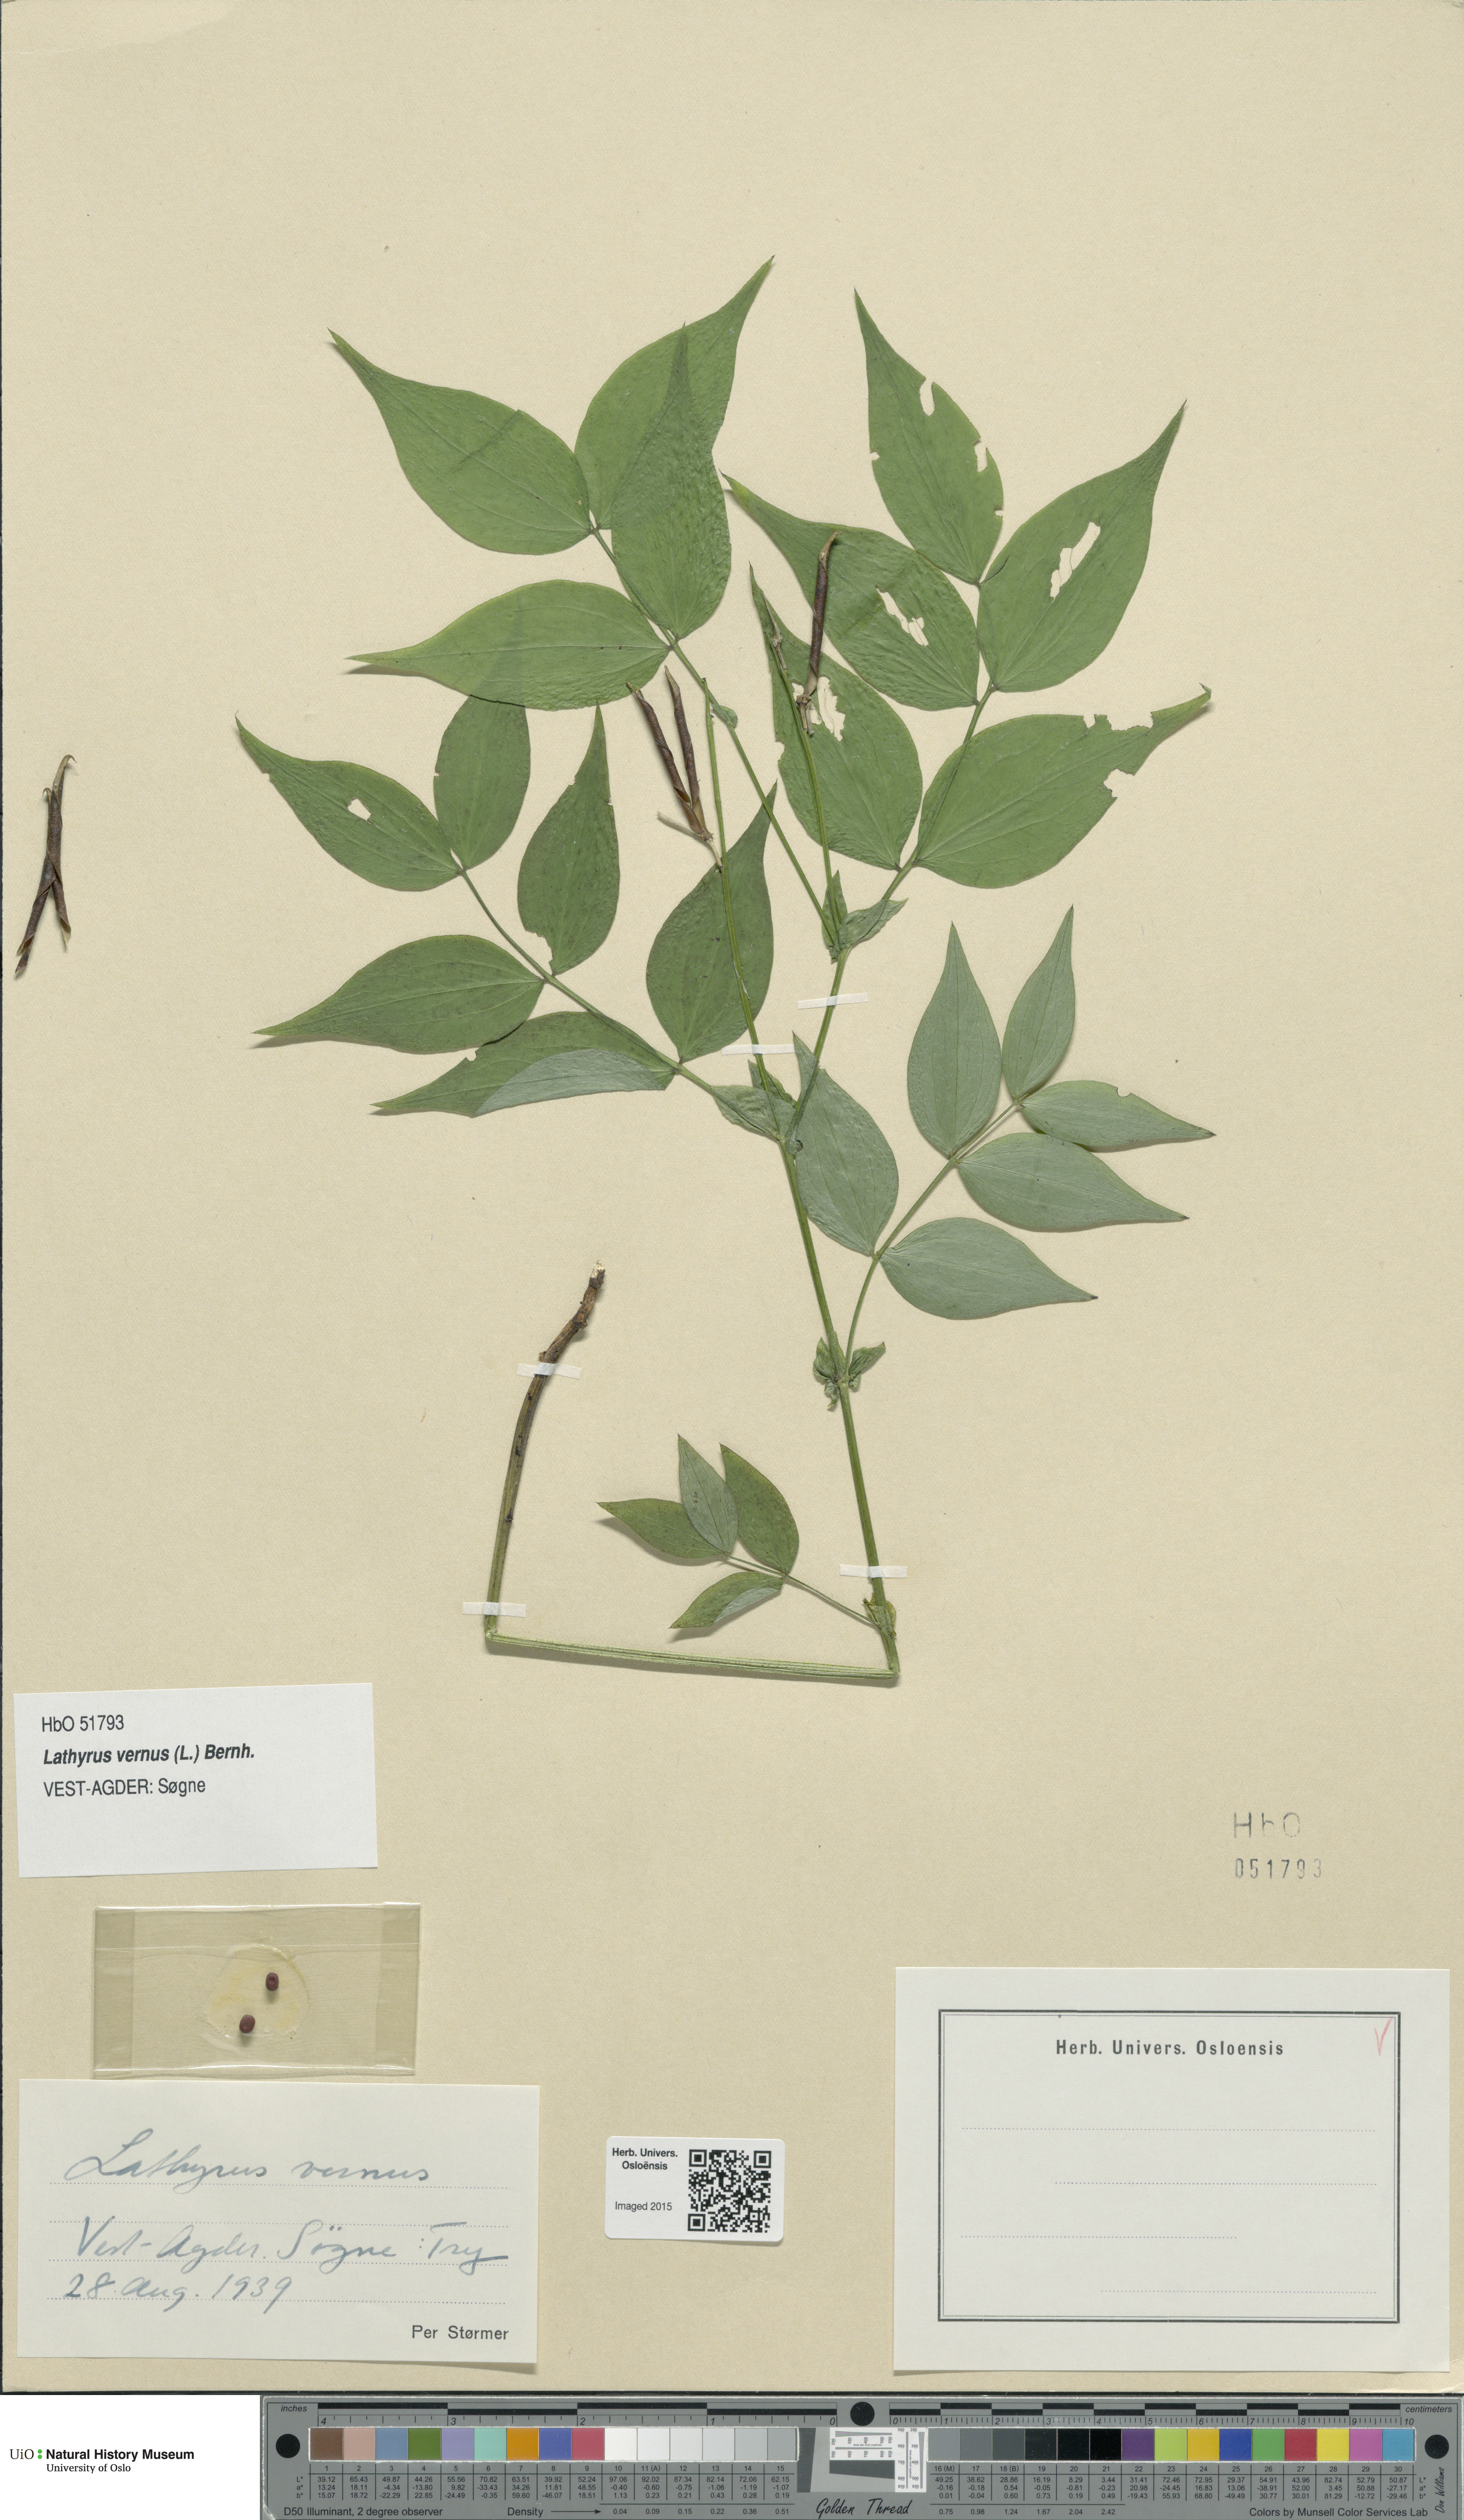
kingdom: Plantae
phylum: Tracheophyta
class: Magnoliopsida
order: Fabales
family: Fabaceae
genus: Lathyrus
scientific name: Lathyrus vernus
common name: Spring pea
